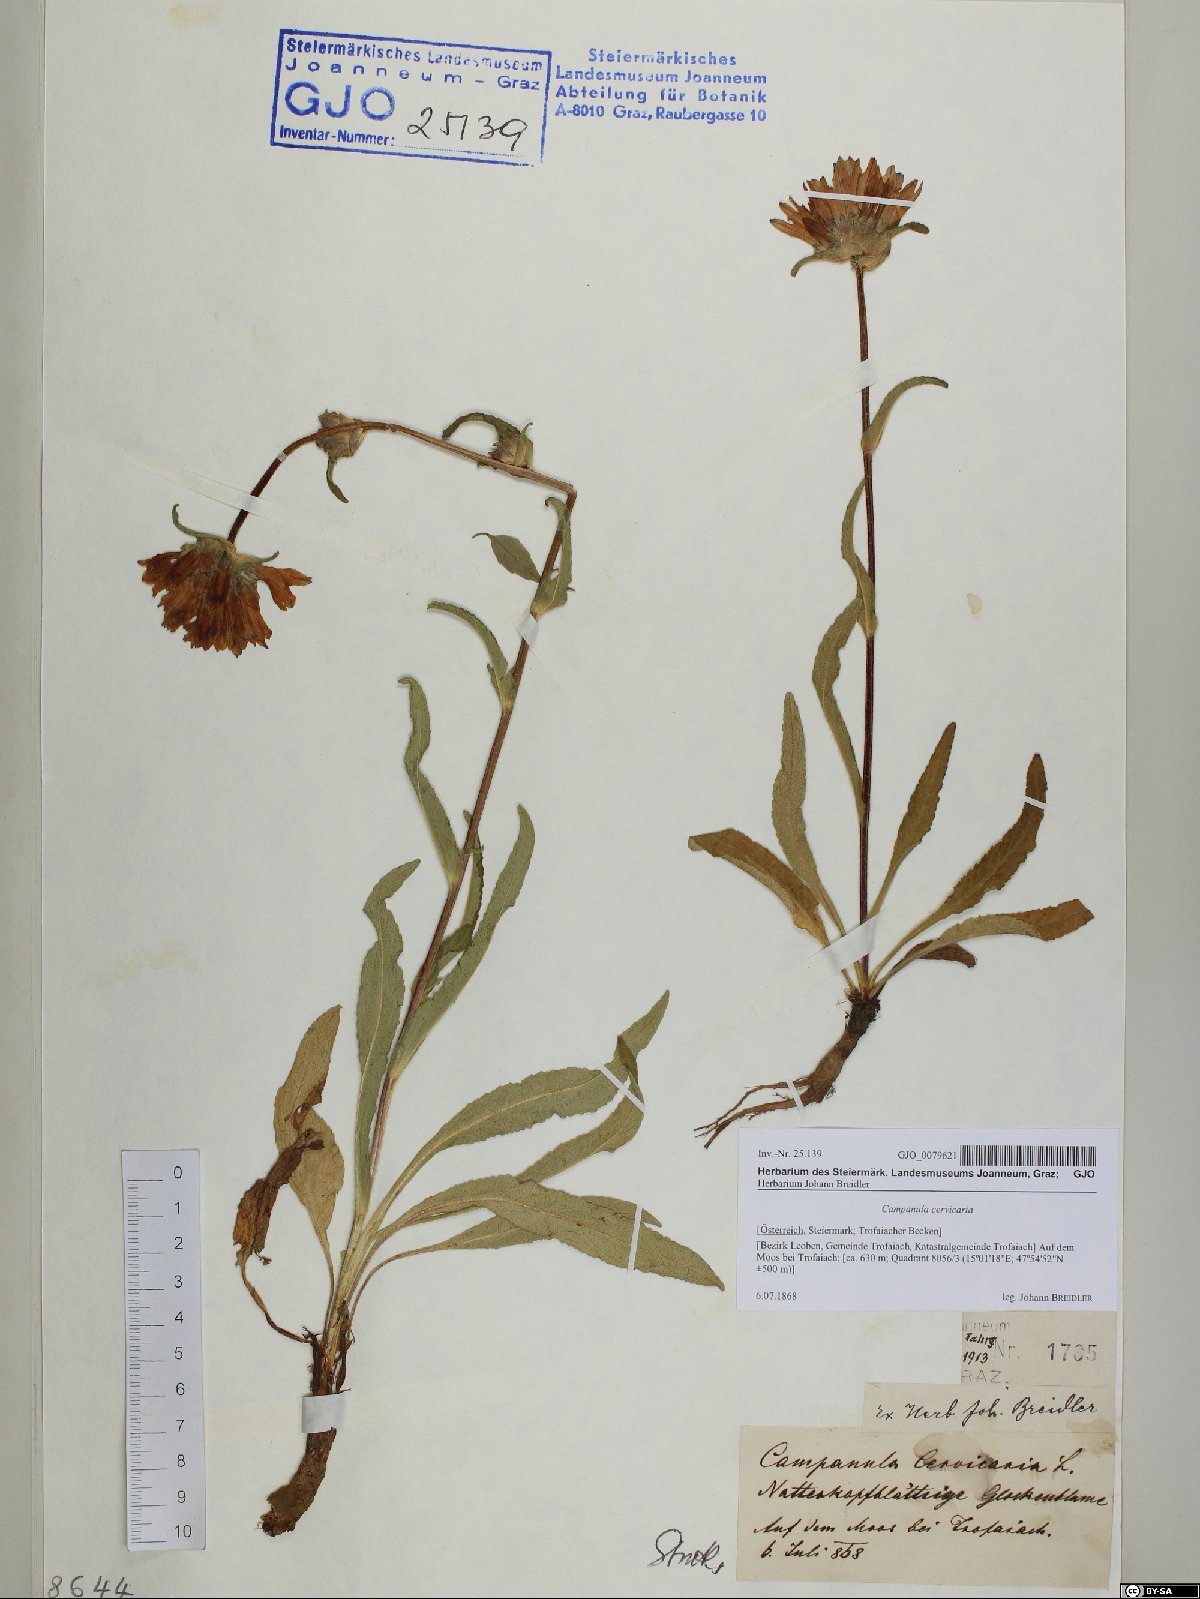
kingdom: Plantae
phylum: Tracheophyta
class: Magnoliopsida
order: Asterales
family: Campanulaceae
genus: Campanula
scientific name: Campanula cervicaria
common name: Bristly bellflower
